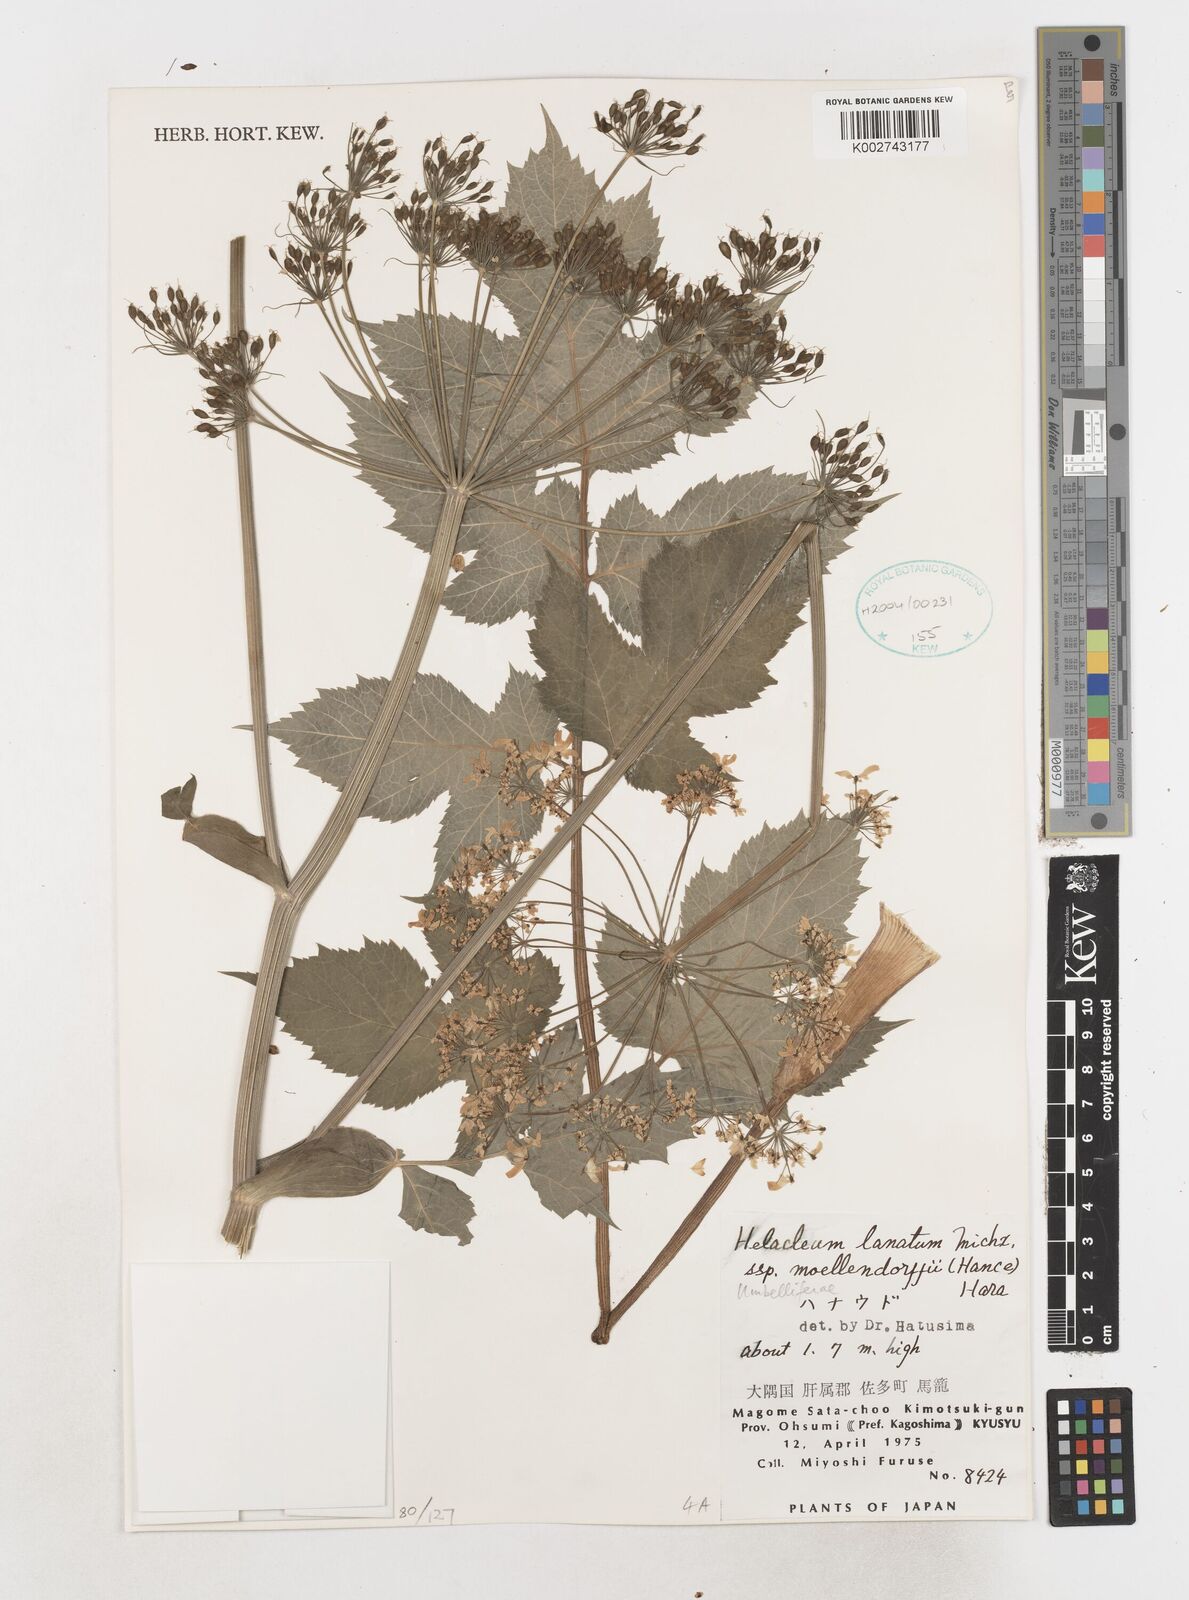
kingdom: Plantae
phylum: Tracheophyta
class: Magnoliopsida
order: Apiales
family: Apiaceae
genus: Heracleum
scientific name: Heracleum moellendorffii
